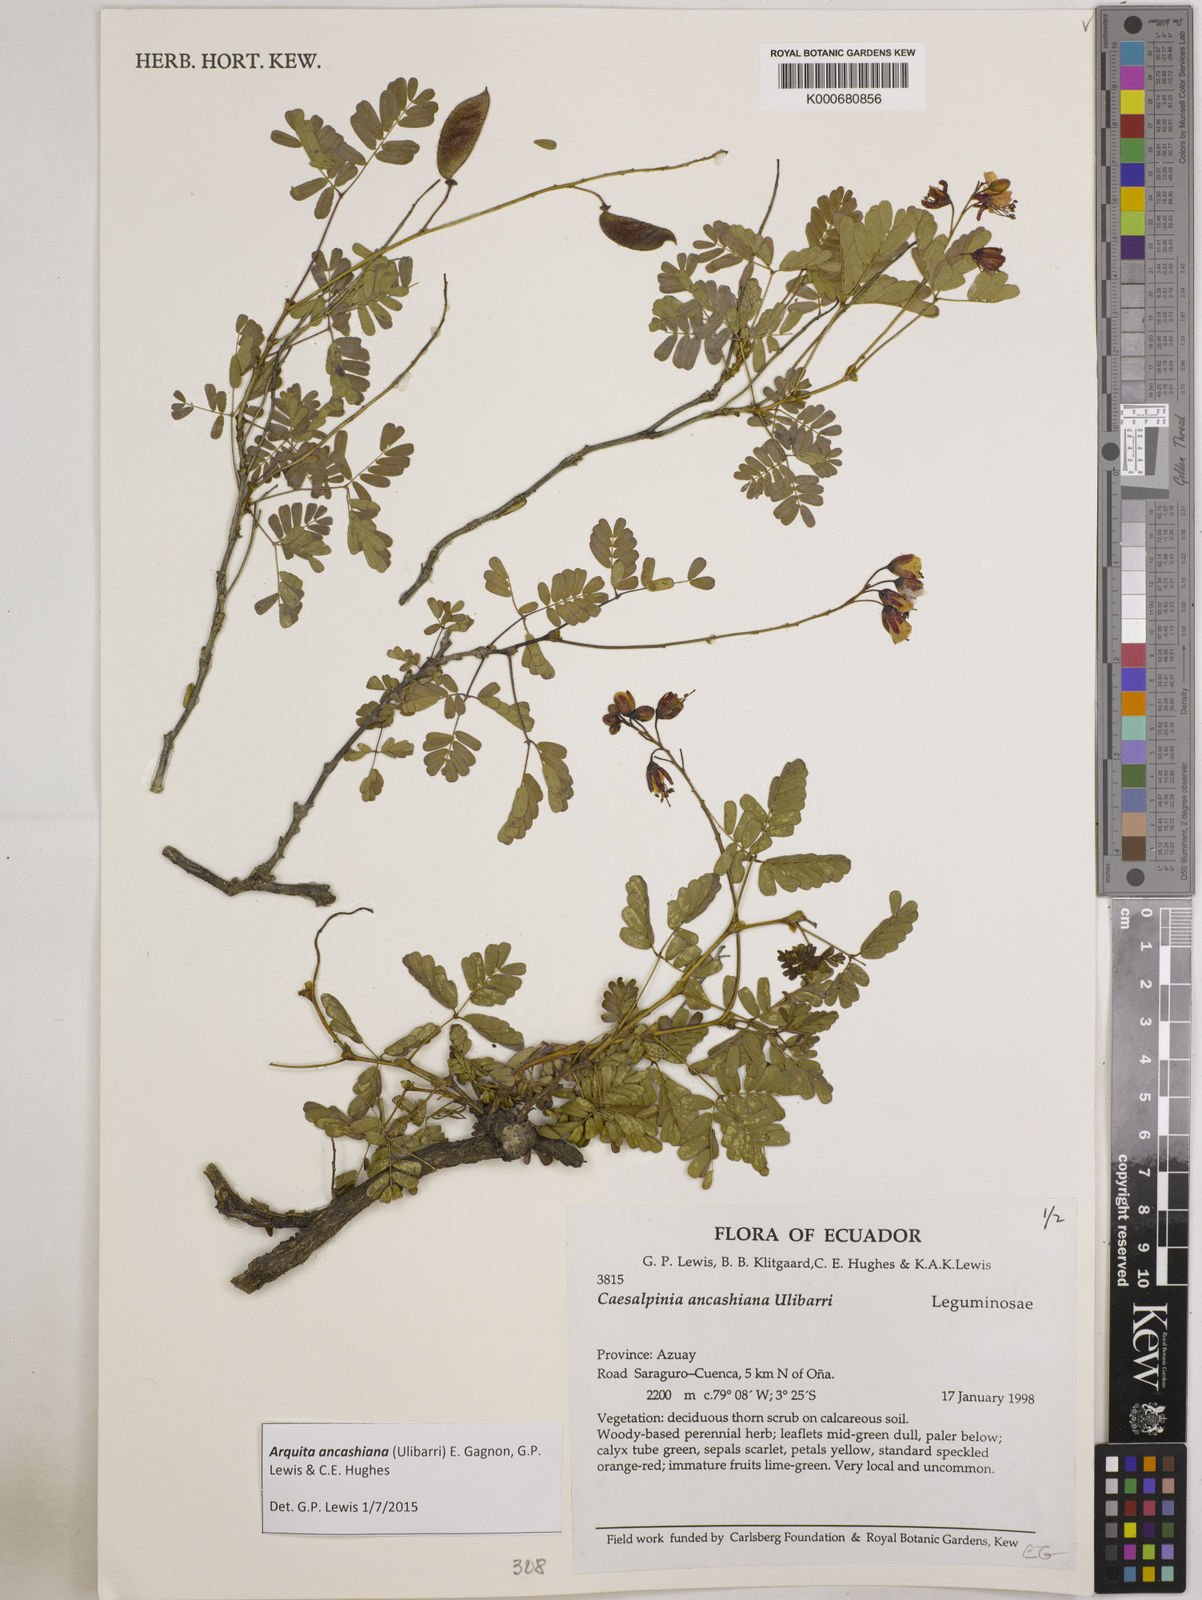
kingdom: Plantae
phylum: Tracheophyta
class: Magnoliopsida
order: Fabales
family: Fabaceae
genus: Arquita
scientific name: Arquita ancashiana
